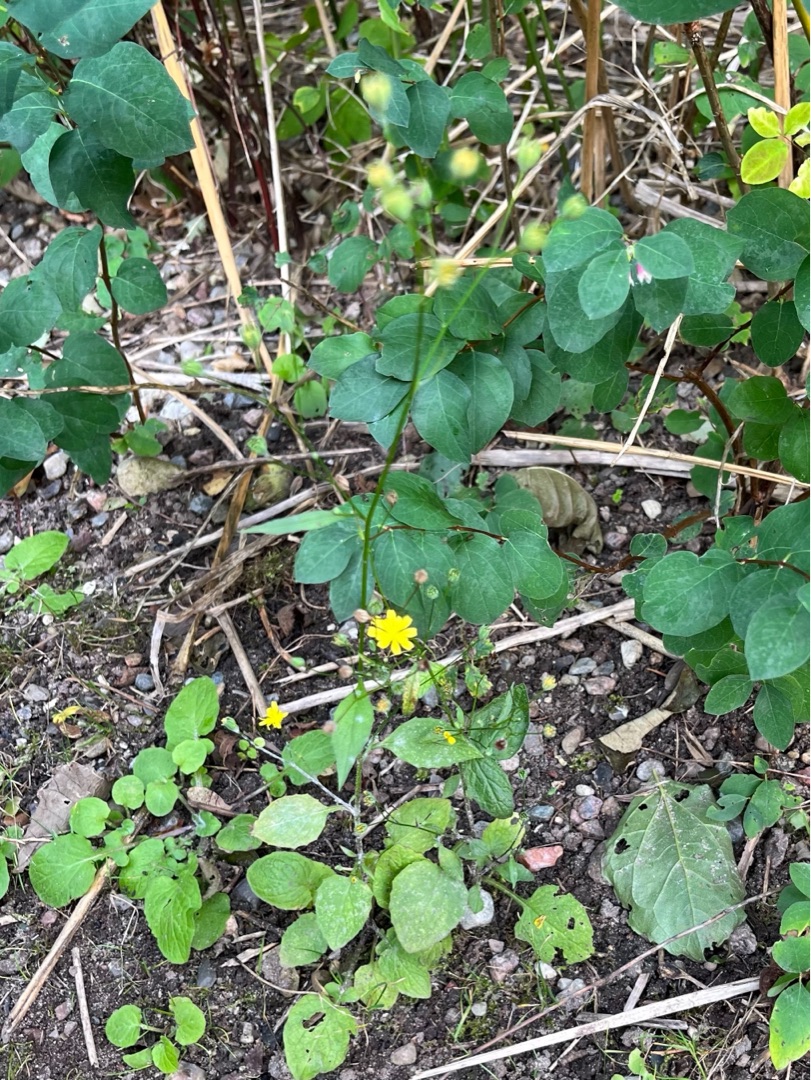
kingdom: Plantae
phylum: Tracheophyta
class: Magnoliopsida
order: Asterales
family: Asteraceae
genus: Lapsana
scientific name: Lapsana communis
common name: Haremad
